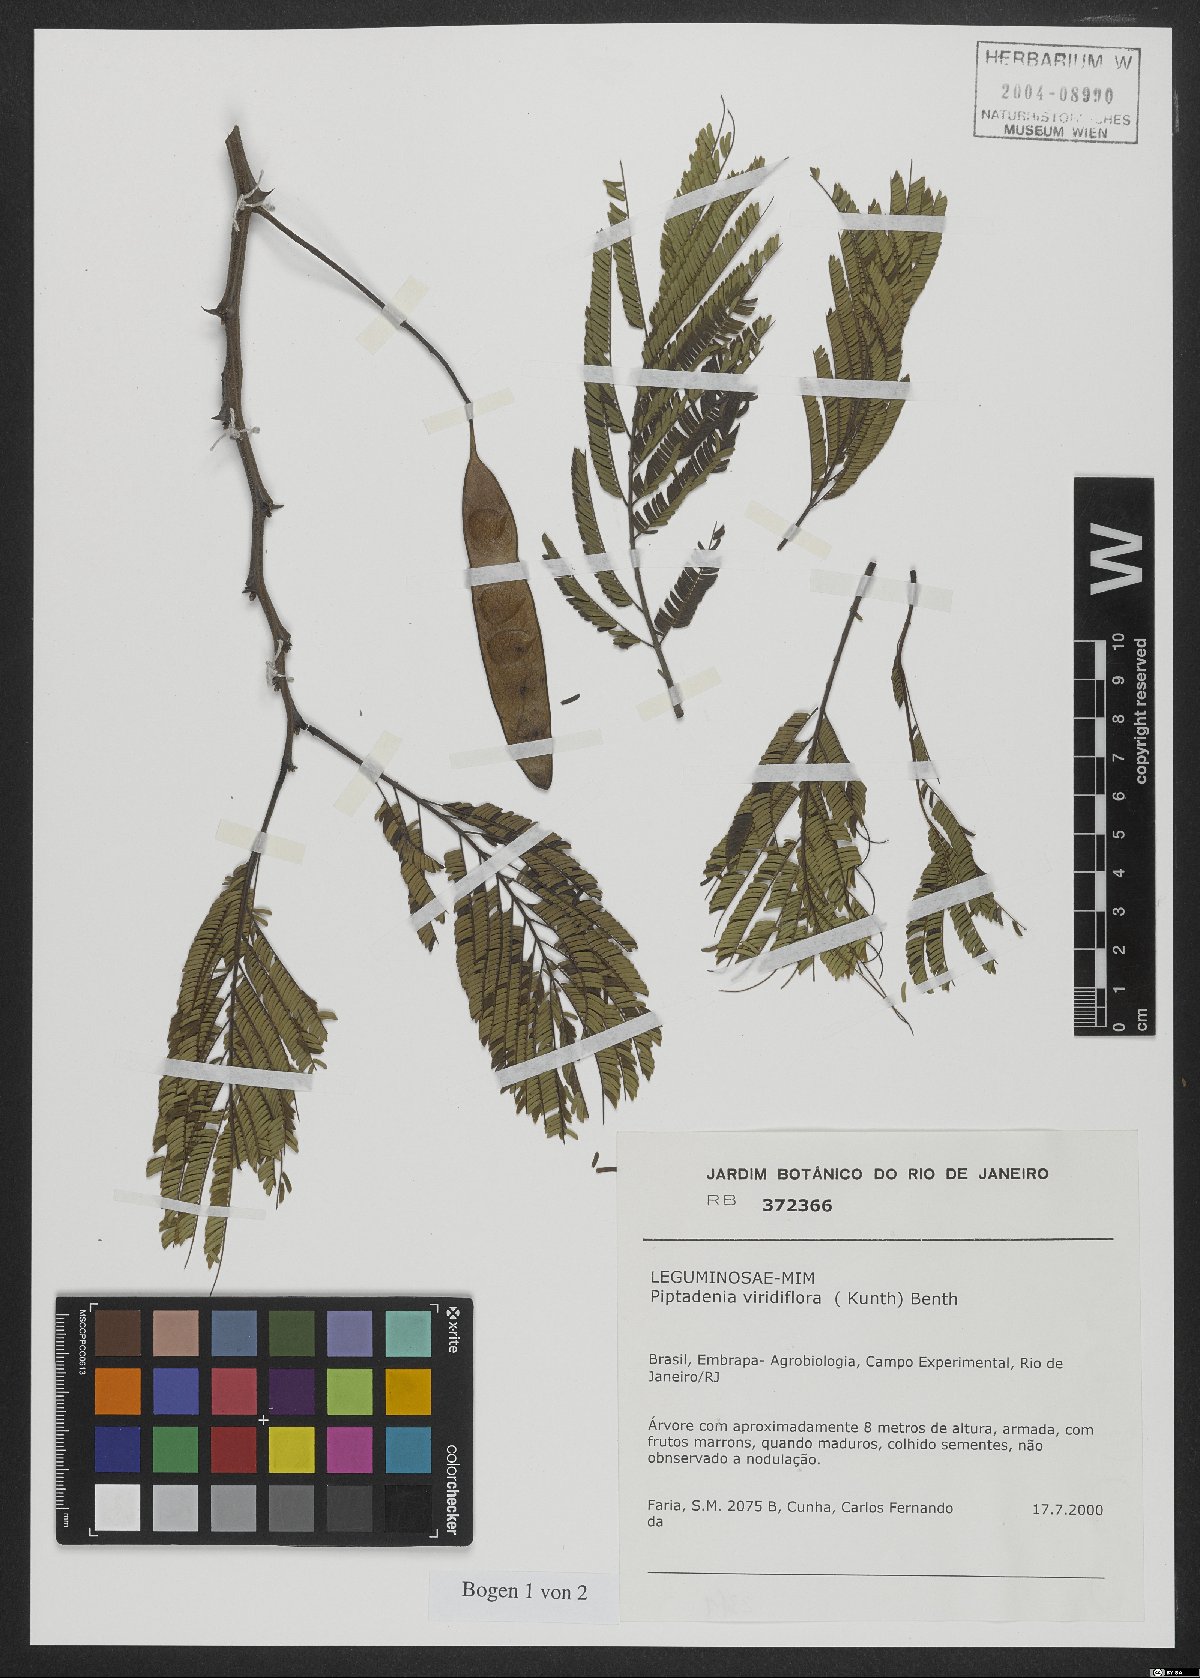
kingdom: Plantae
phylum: Tracheophyta
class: Magnoliopsida
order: Fabales
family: Fabaceae
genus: Lachesiodendron
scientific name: Lachesiodendron viridiflorum
